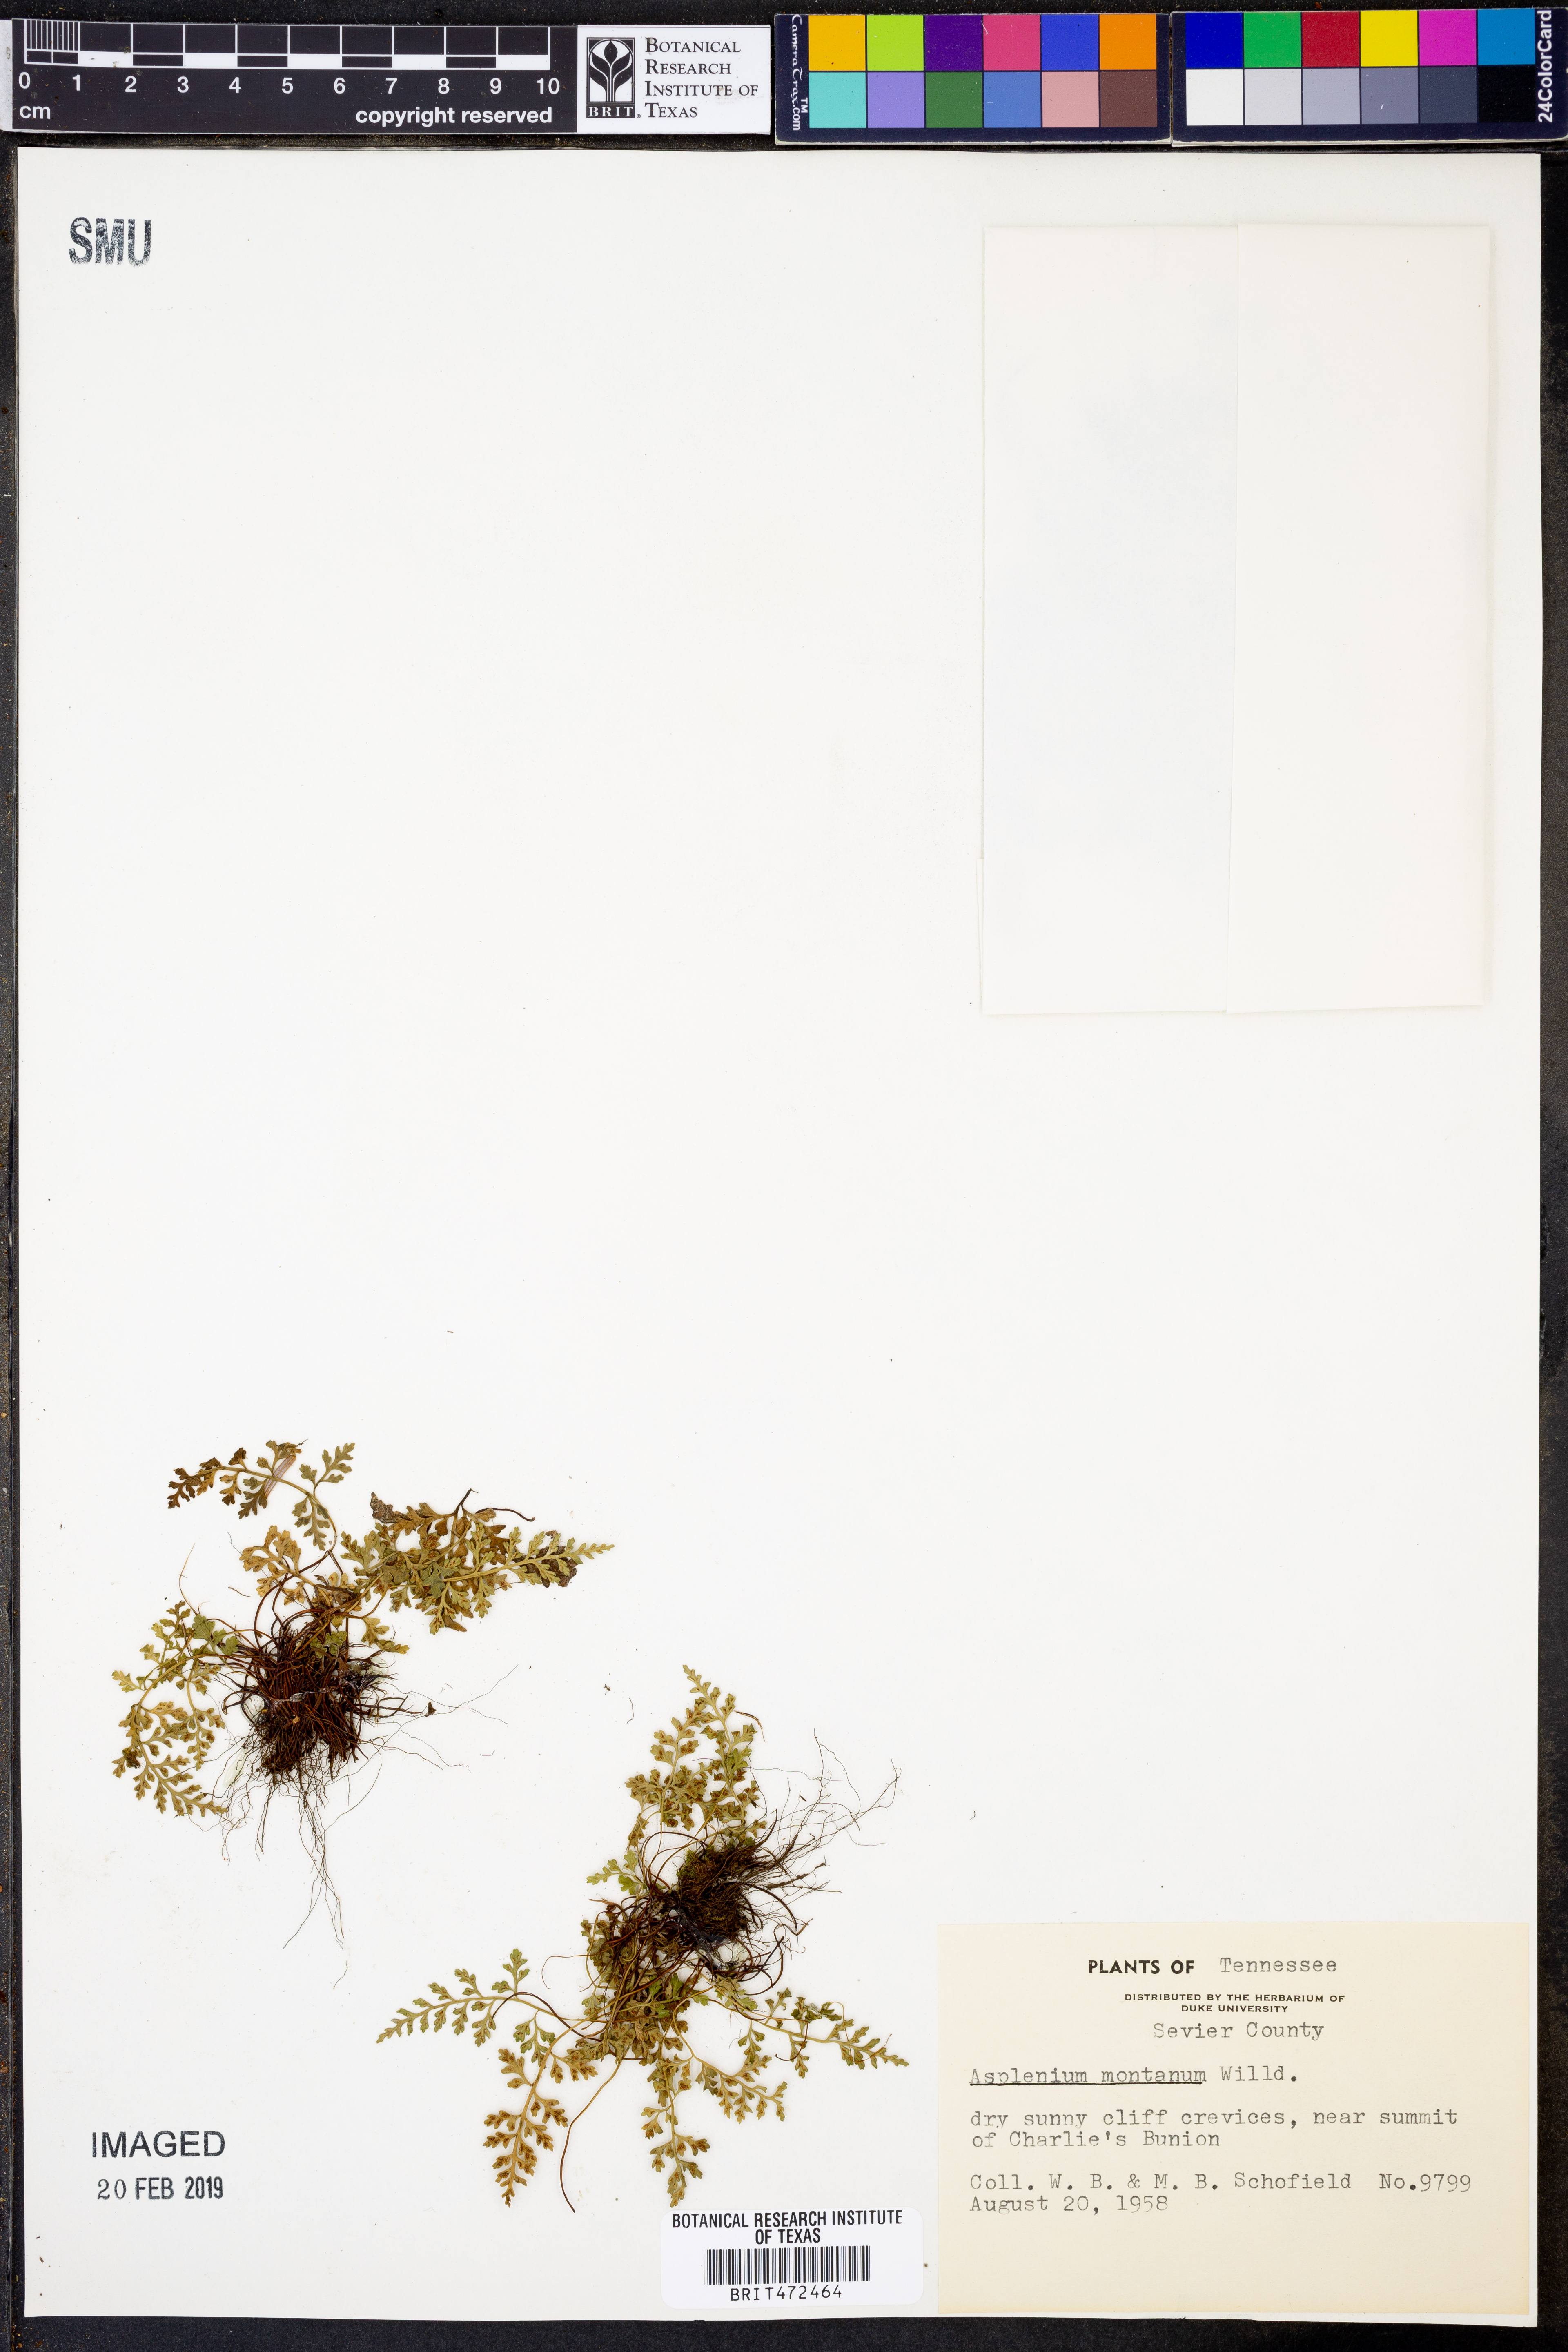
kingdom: Plantae
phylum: Tracheophyta
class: Polypodiopsida
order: Polypodiales
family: Aspleniaceae
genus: Asplenium
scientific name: Asplenium montanum
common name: Mountain spleenwort
